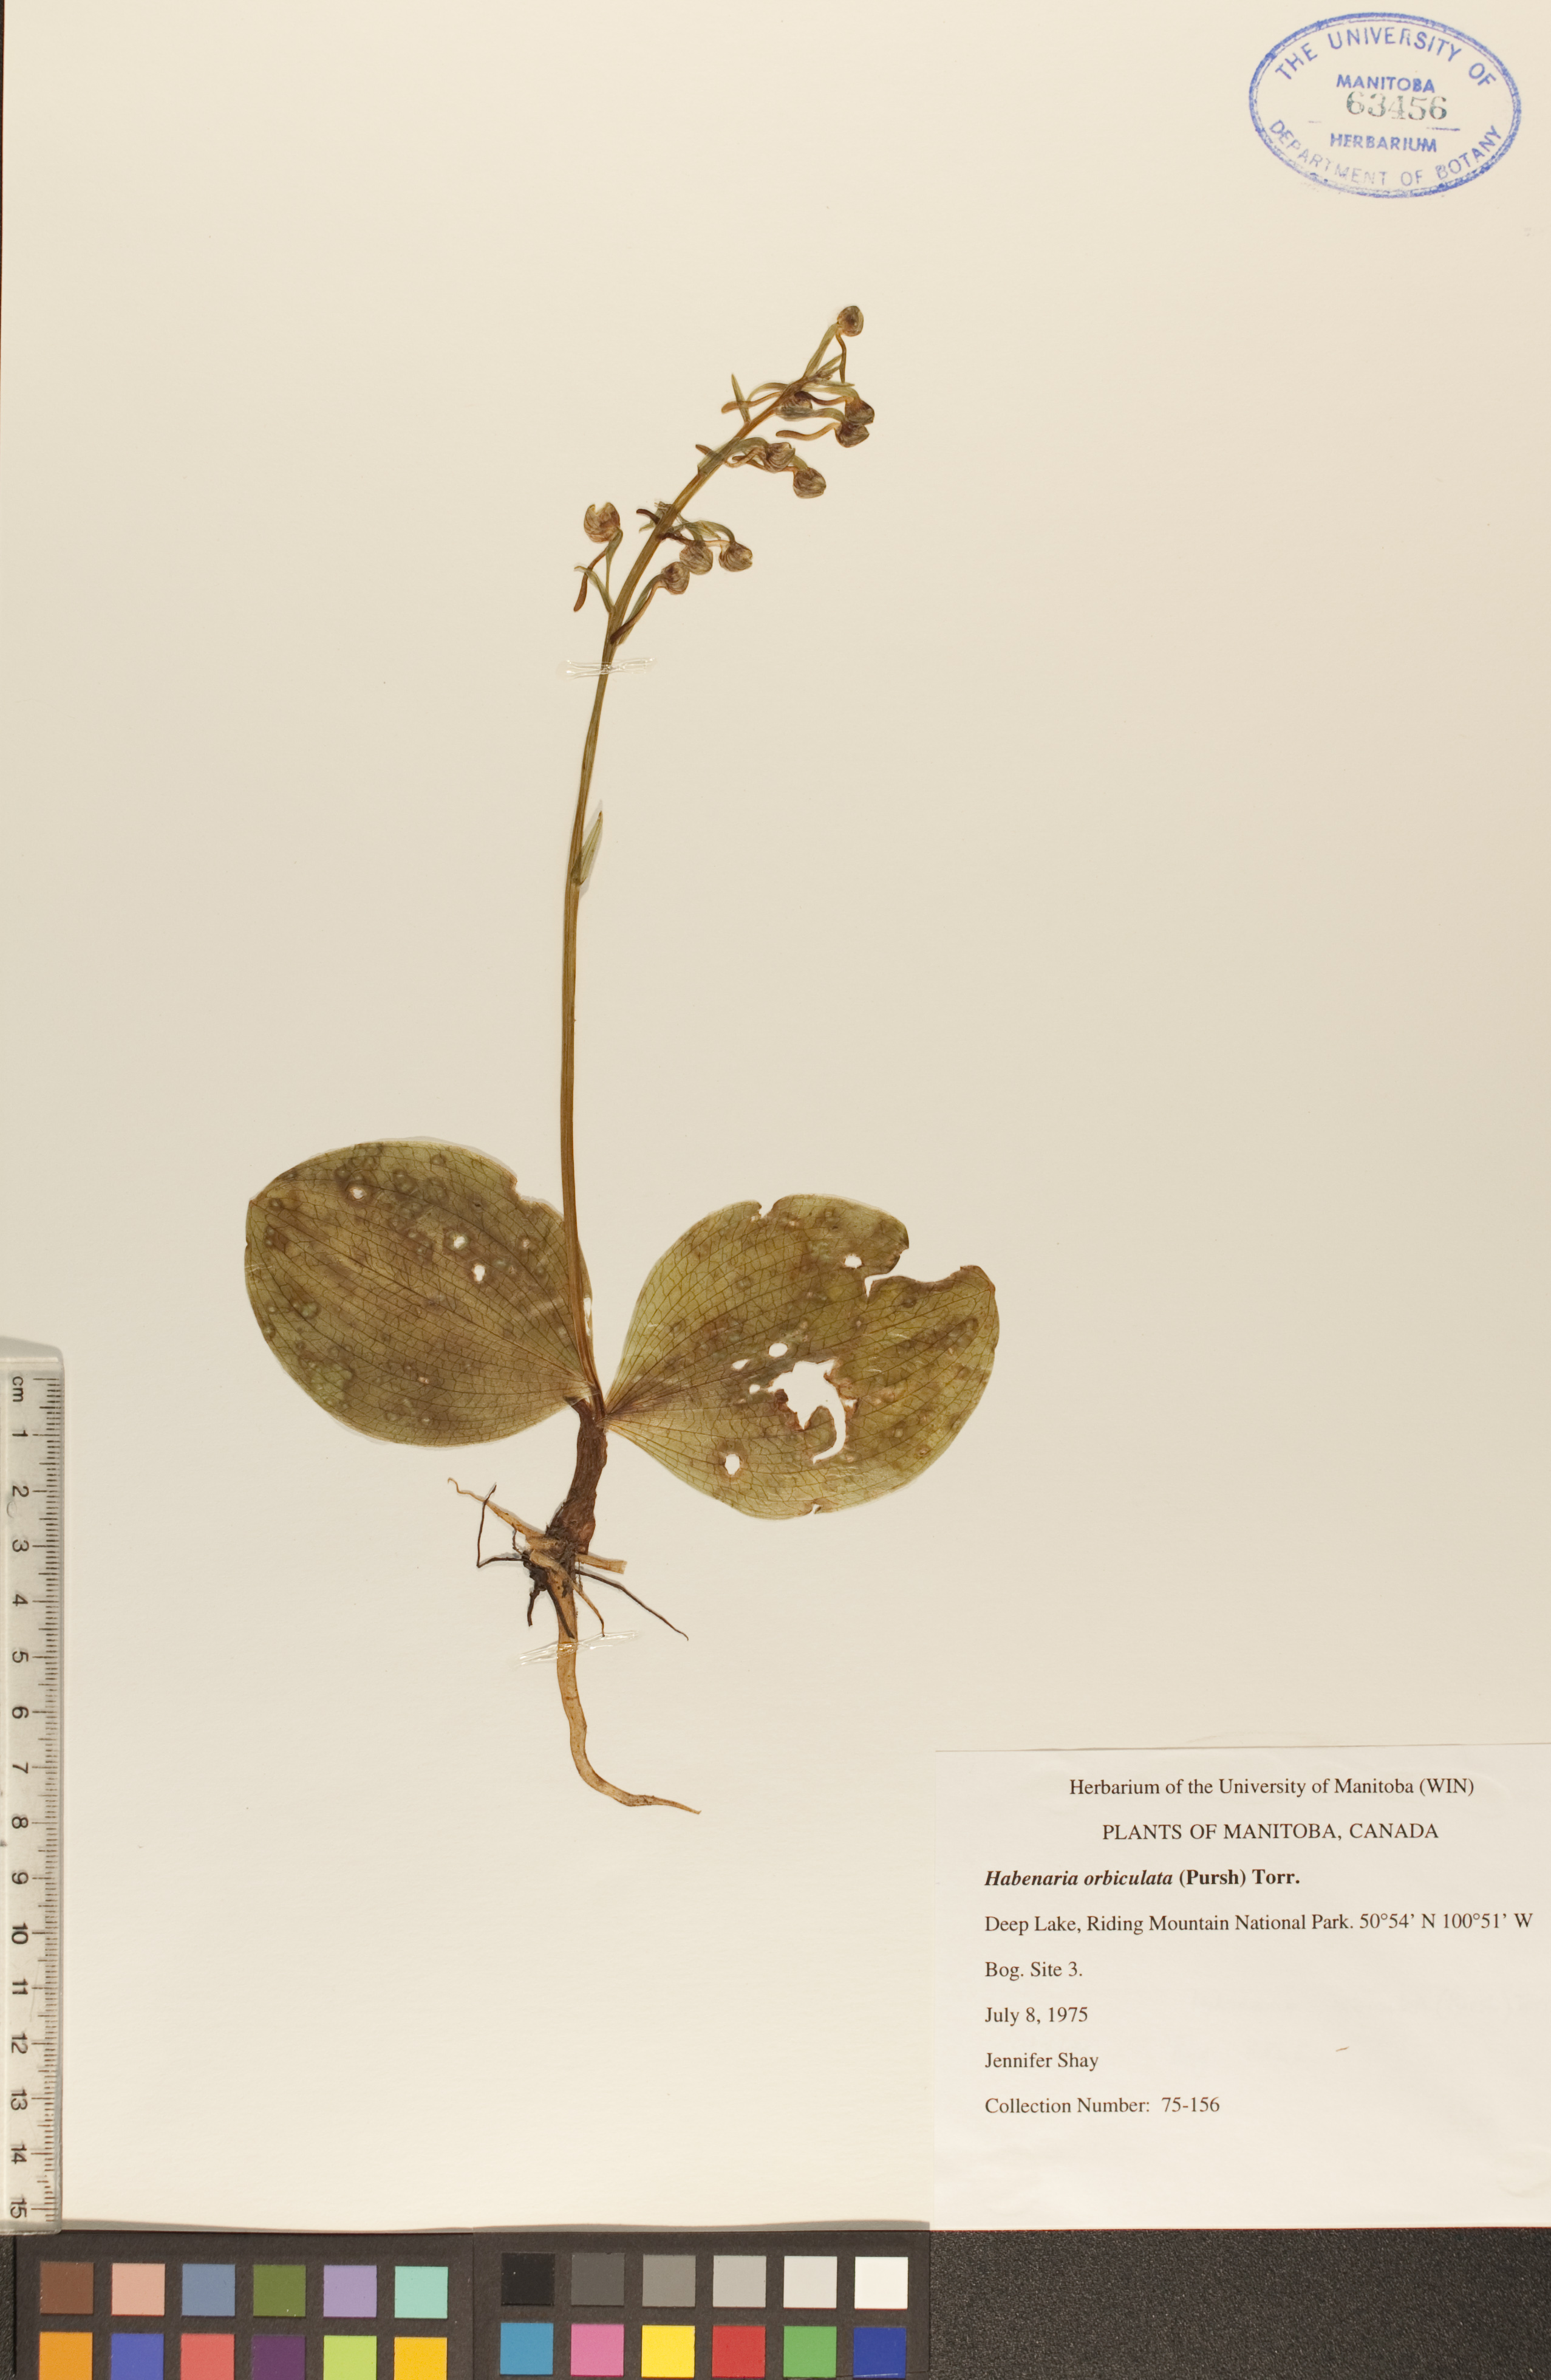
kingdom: Plantae
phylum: Tracheophyta
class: Liliopsida
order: Asparagales
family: Orchidaceae
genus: Platanthera
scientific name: Platanthera orbiculata
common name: Large round-leaved orchid
